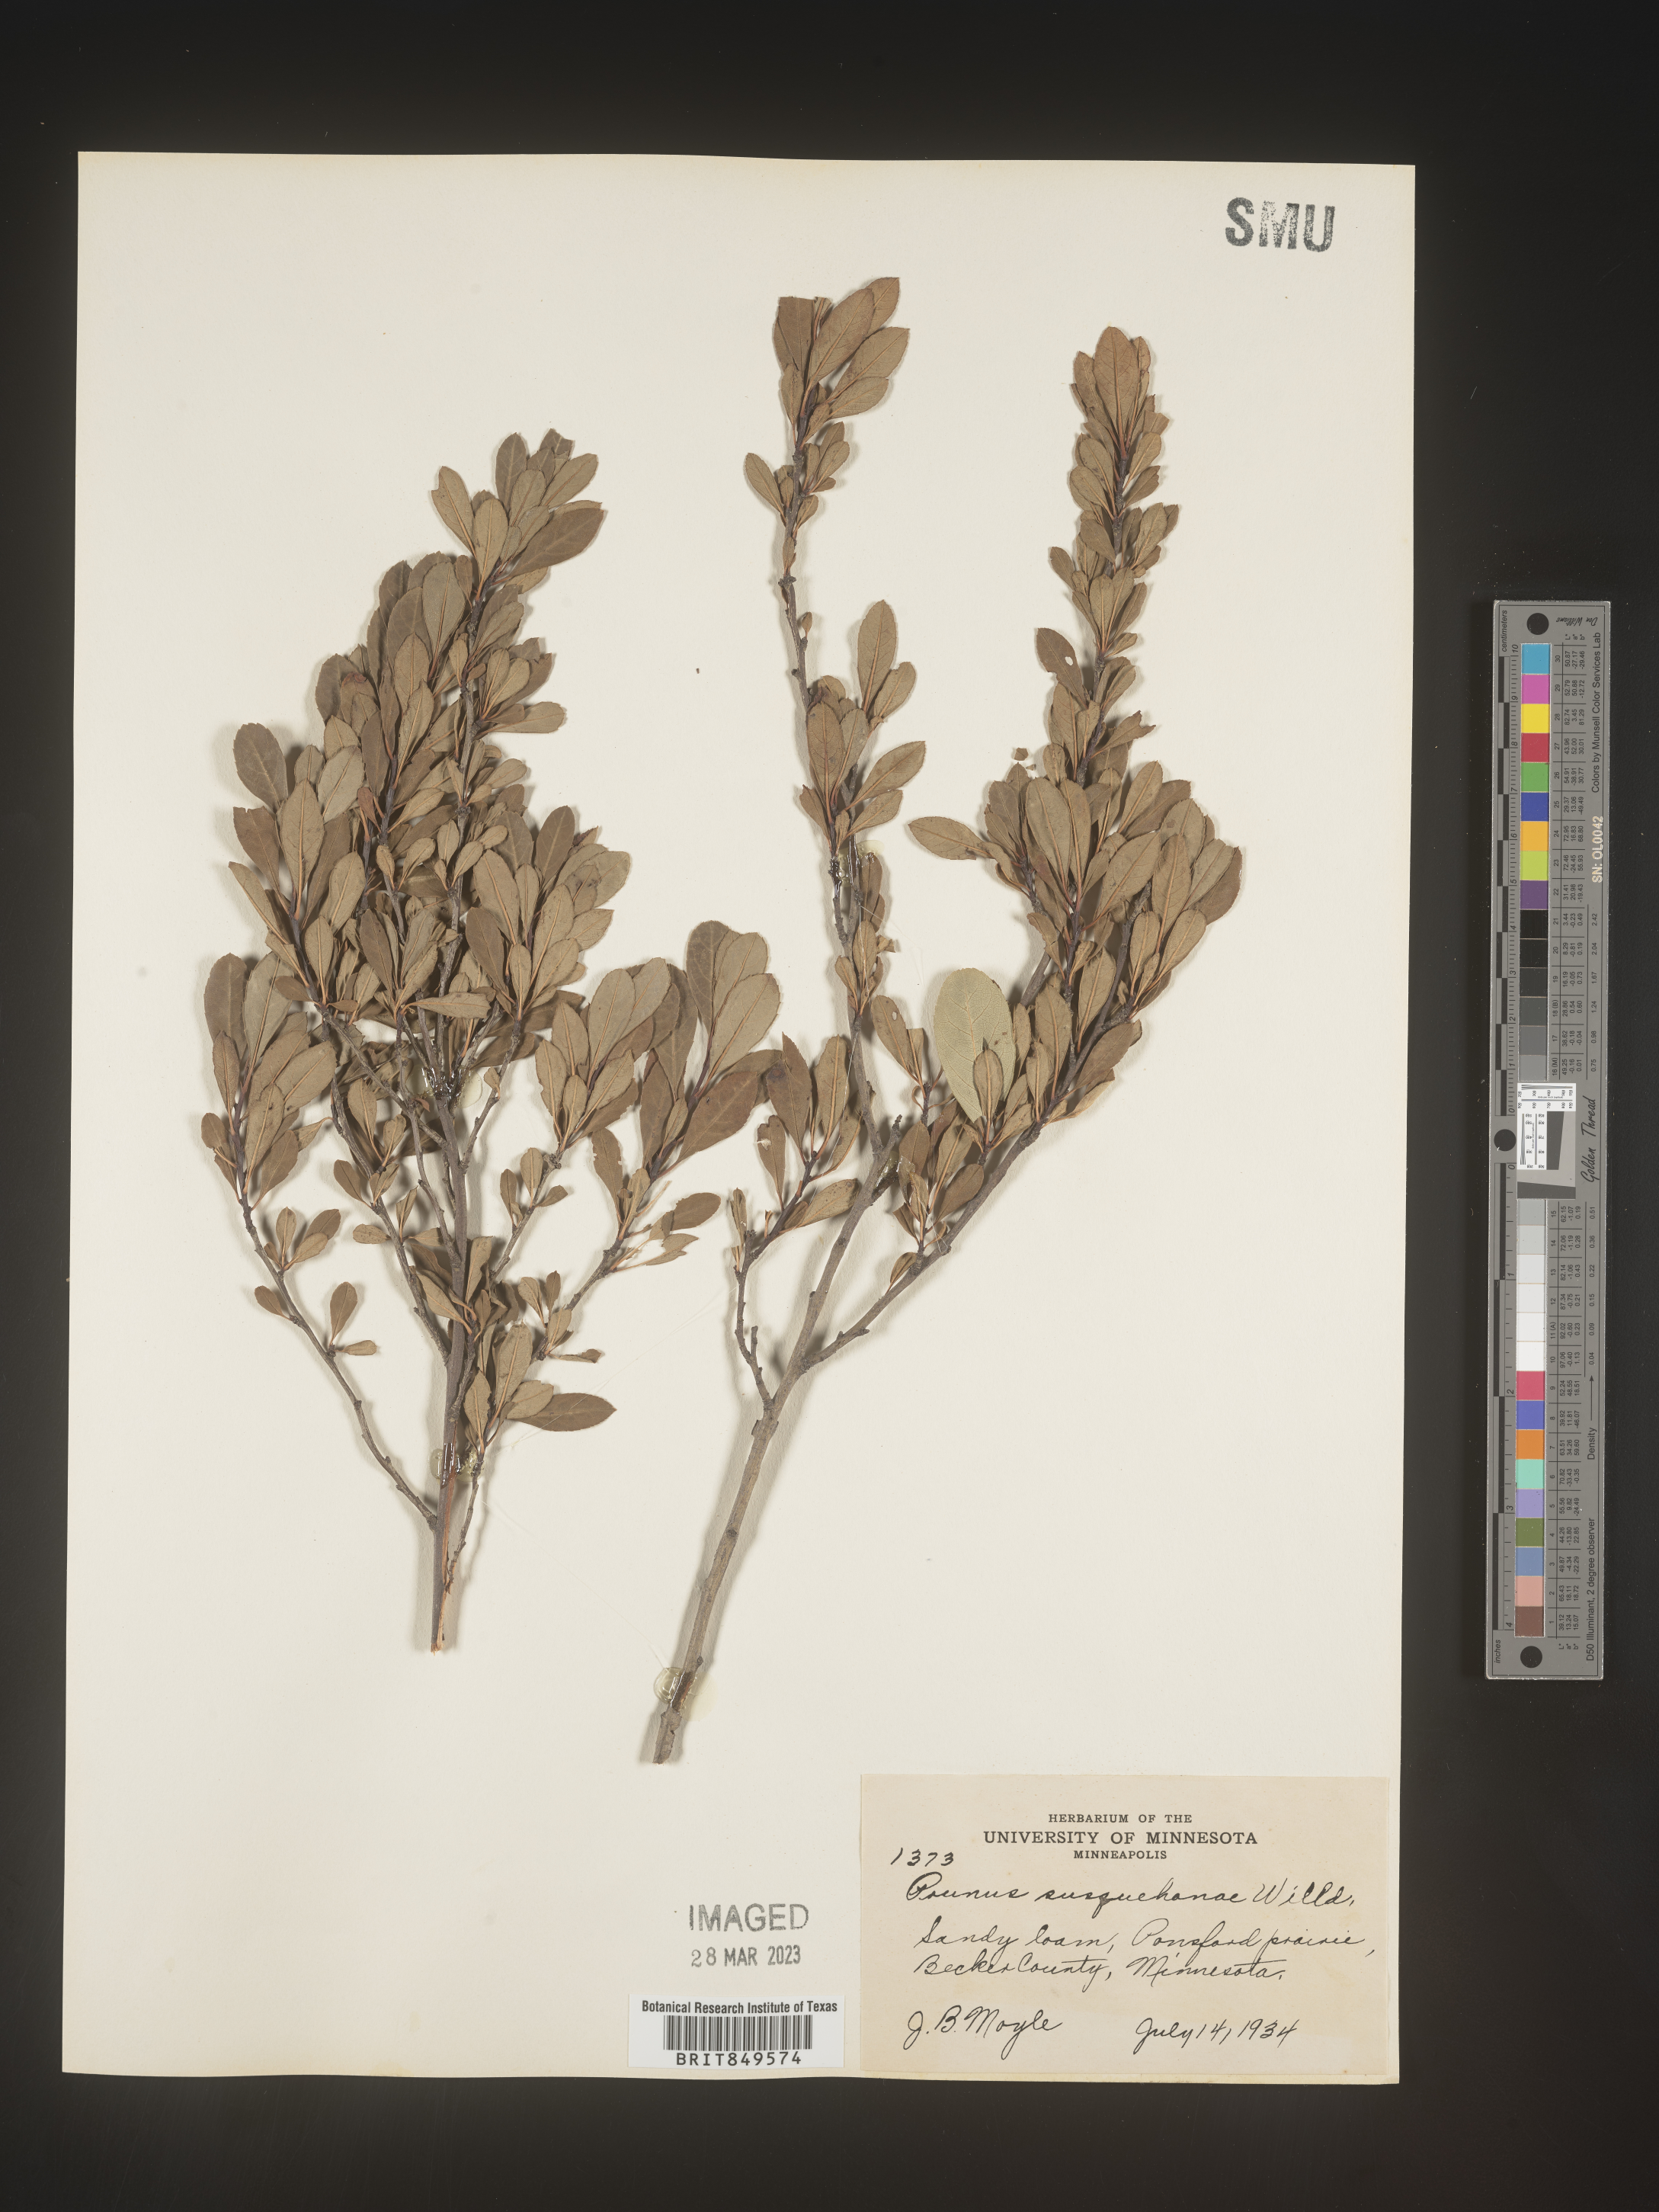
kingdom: Plantae
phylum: Tracheophyta
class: Magnoliopsida
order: Rosales
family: Rosaceae
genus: Prunus
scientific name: Prunus
